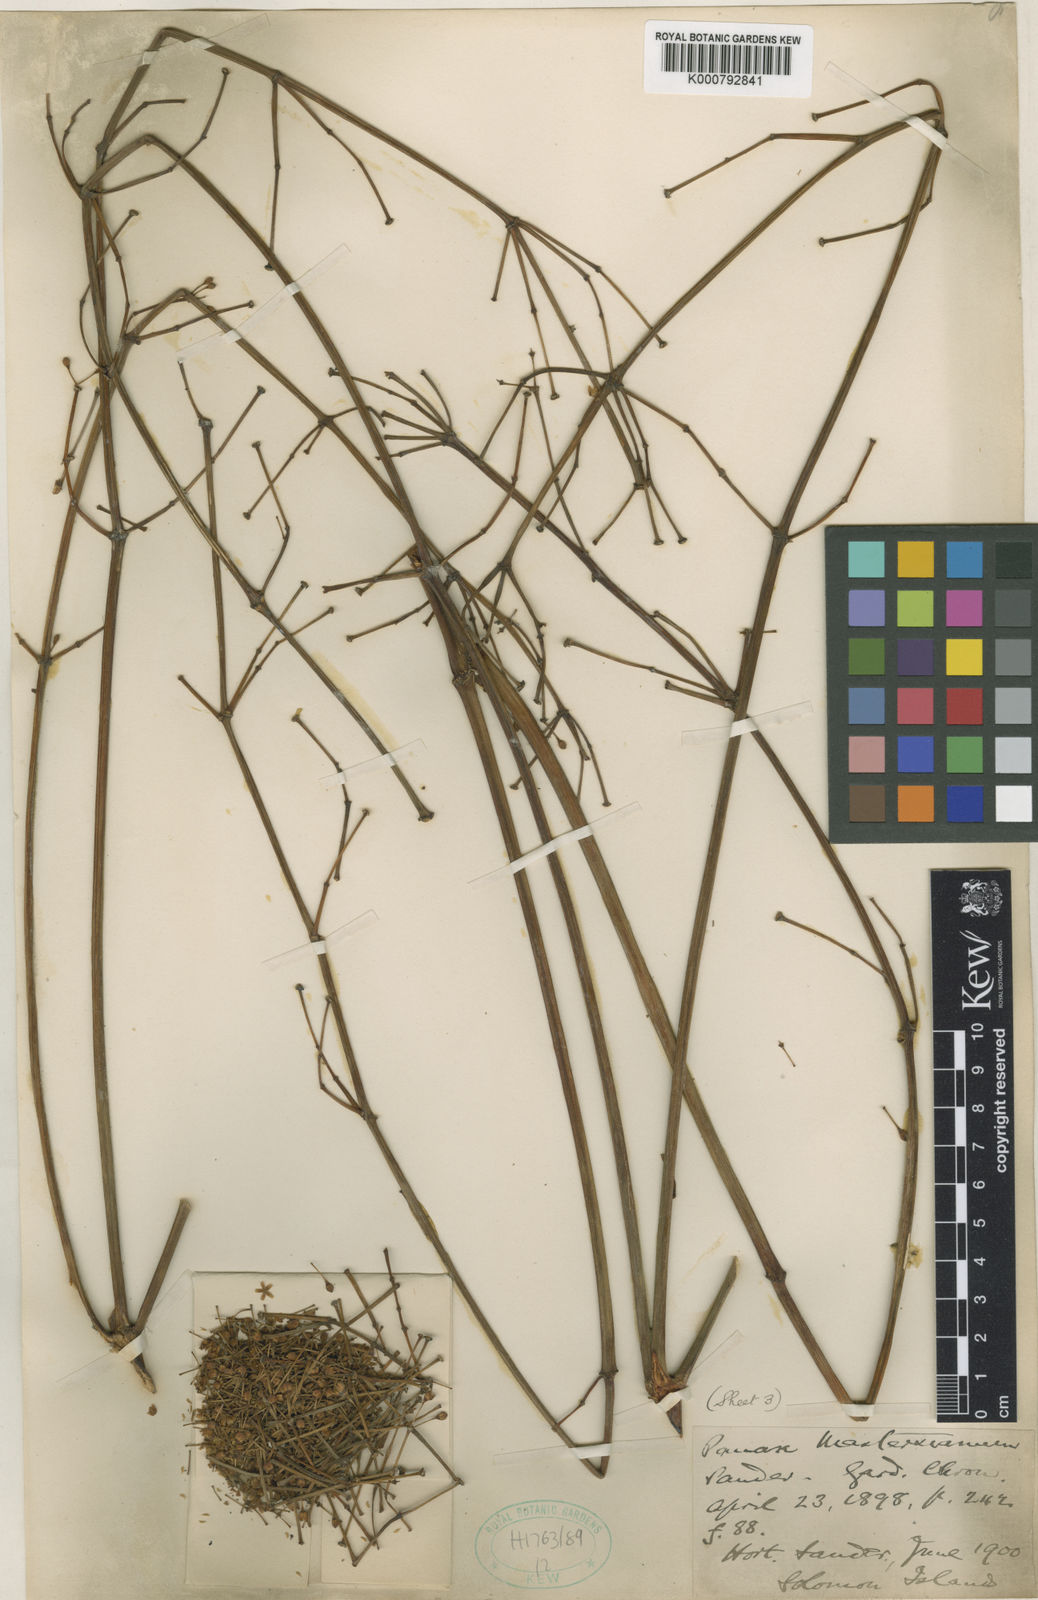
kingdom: Plantae
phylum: Tracheophyta
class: Magnoliopsida
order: Apiales
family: Araliaceae
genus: Polyscias
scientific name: Polyscias
